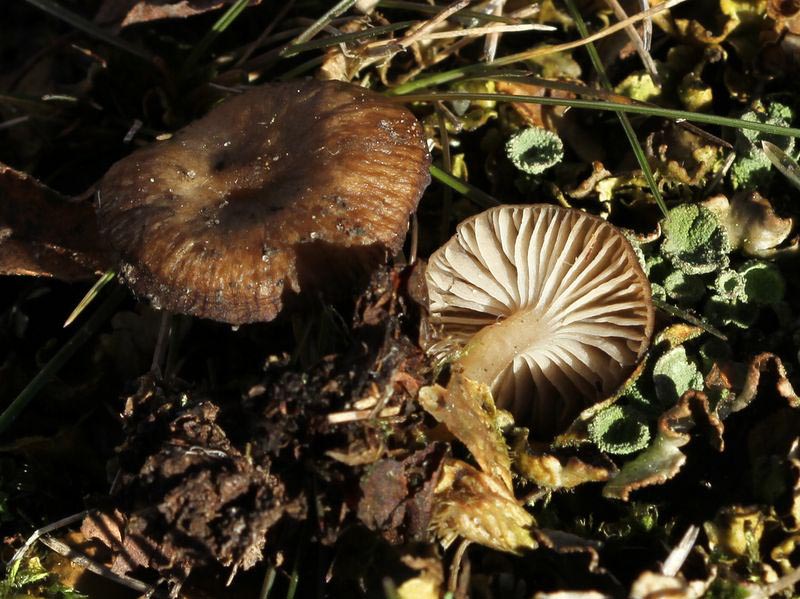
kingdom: Fungi
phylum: Basidiomycota
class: Agaricomycetes
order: Agaricales
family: Tricholomataceae
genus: Gamundia
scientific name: Gamundia xerophila
